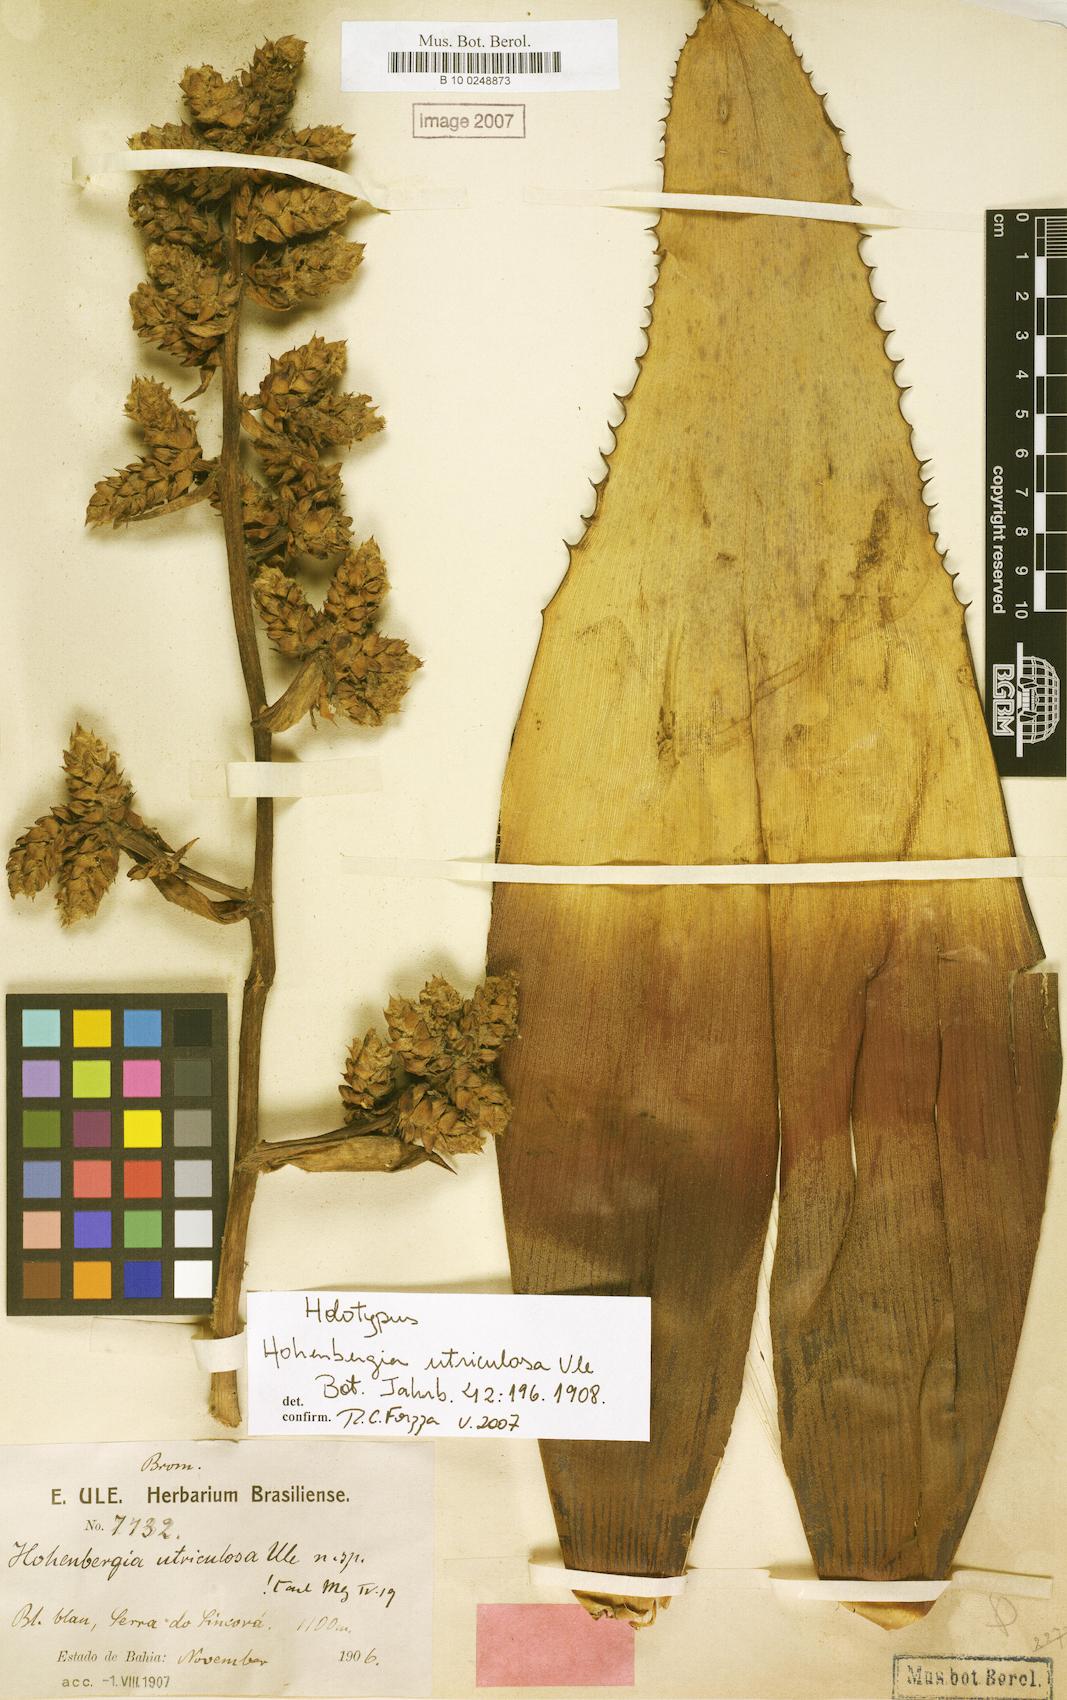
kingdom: Plantae
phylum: Tracheophyta
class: Liliopsida
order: Poales
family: Bromeliaceae
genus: Hohenbergia
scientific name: Hohenbergia utriculosa
